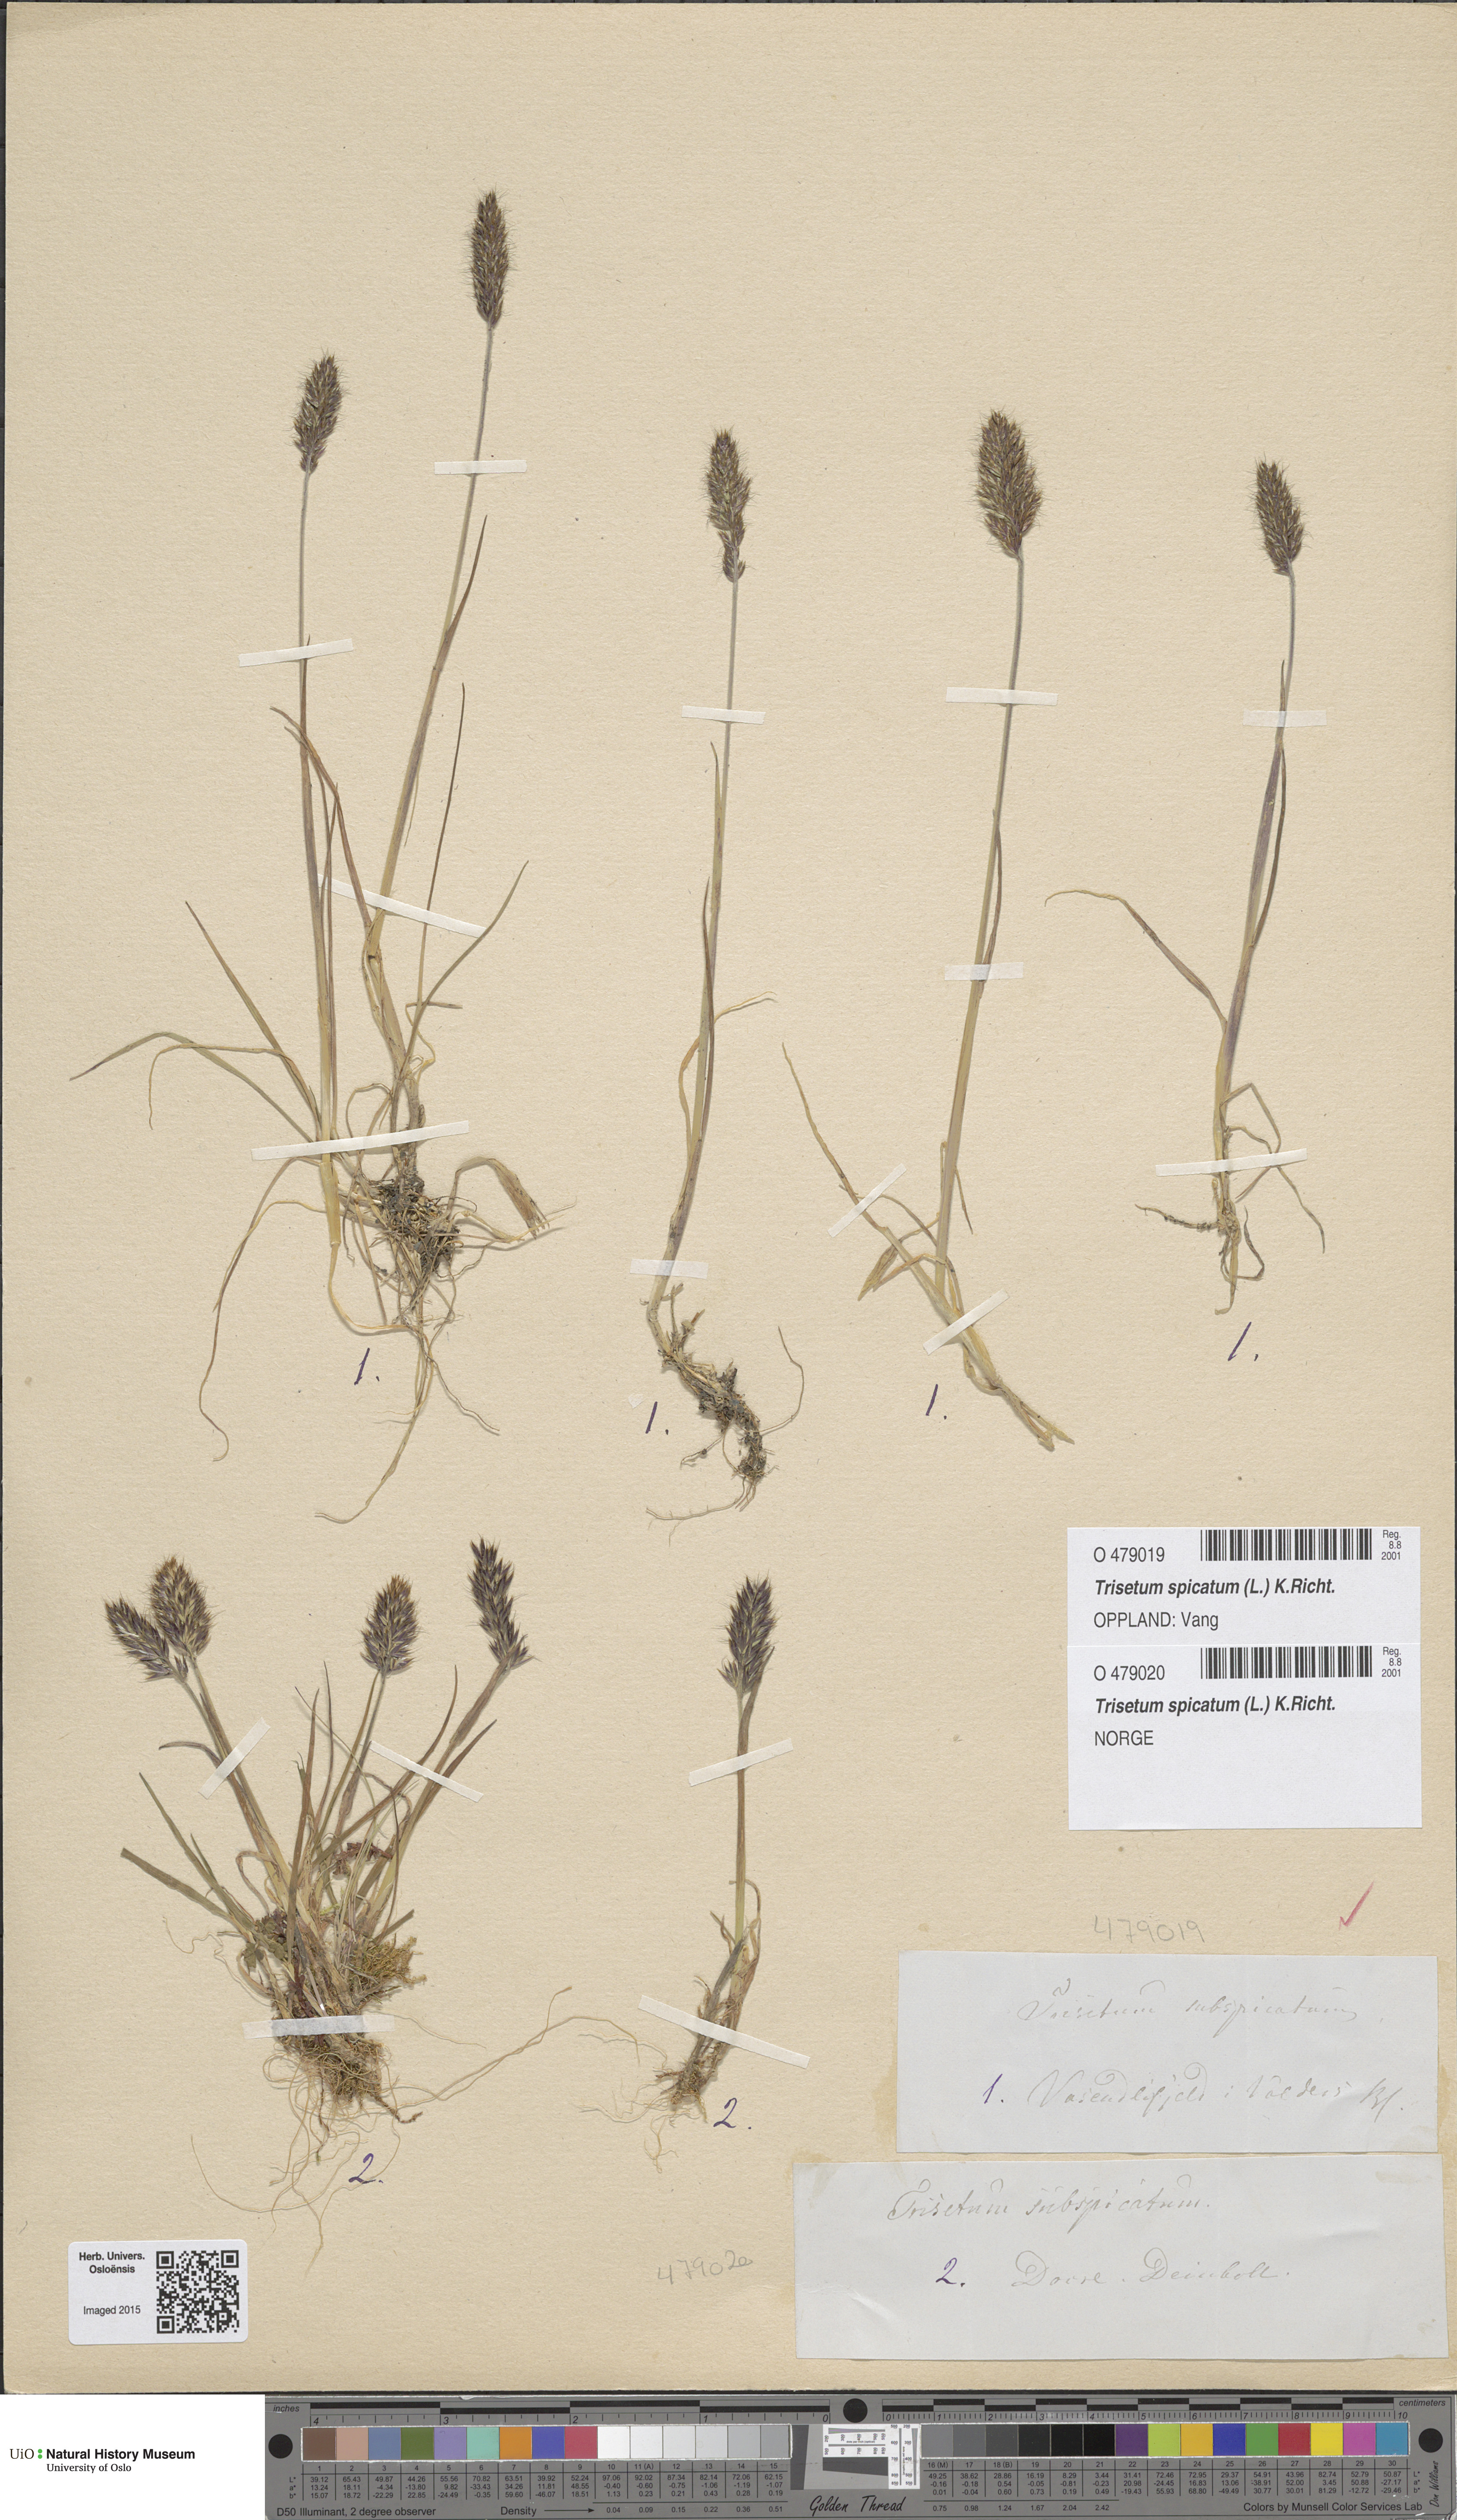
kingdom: Plantae
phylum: Tracheophyta
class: Liliopsida
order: Poales
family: Poaceae
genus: Koeleria
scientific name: Koeleria spicata
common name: Mountain trisetum
